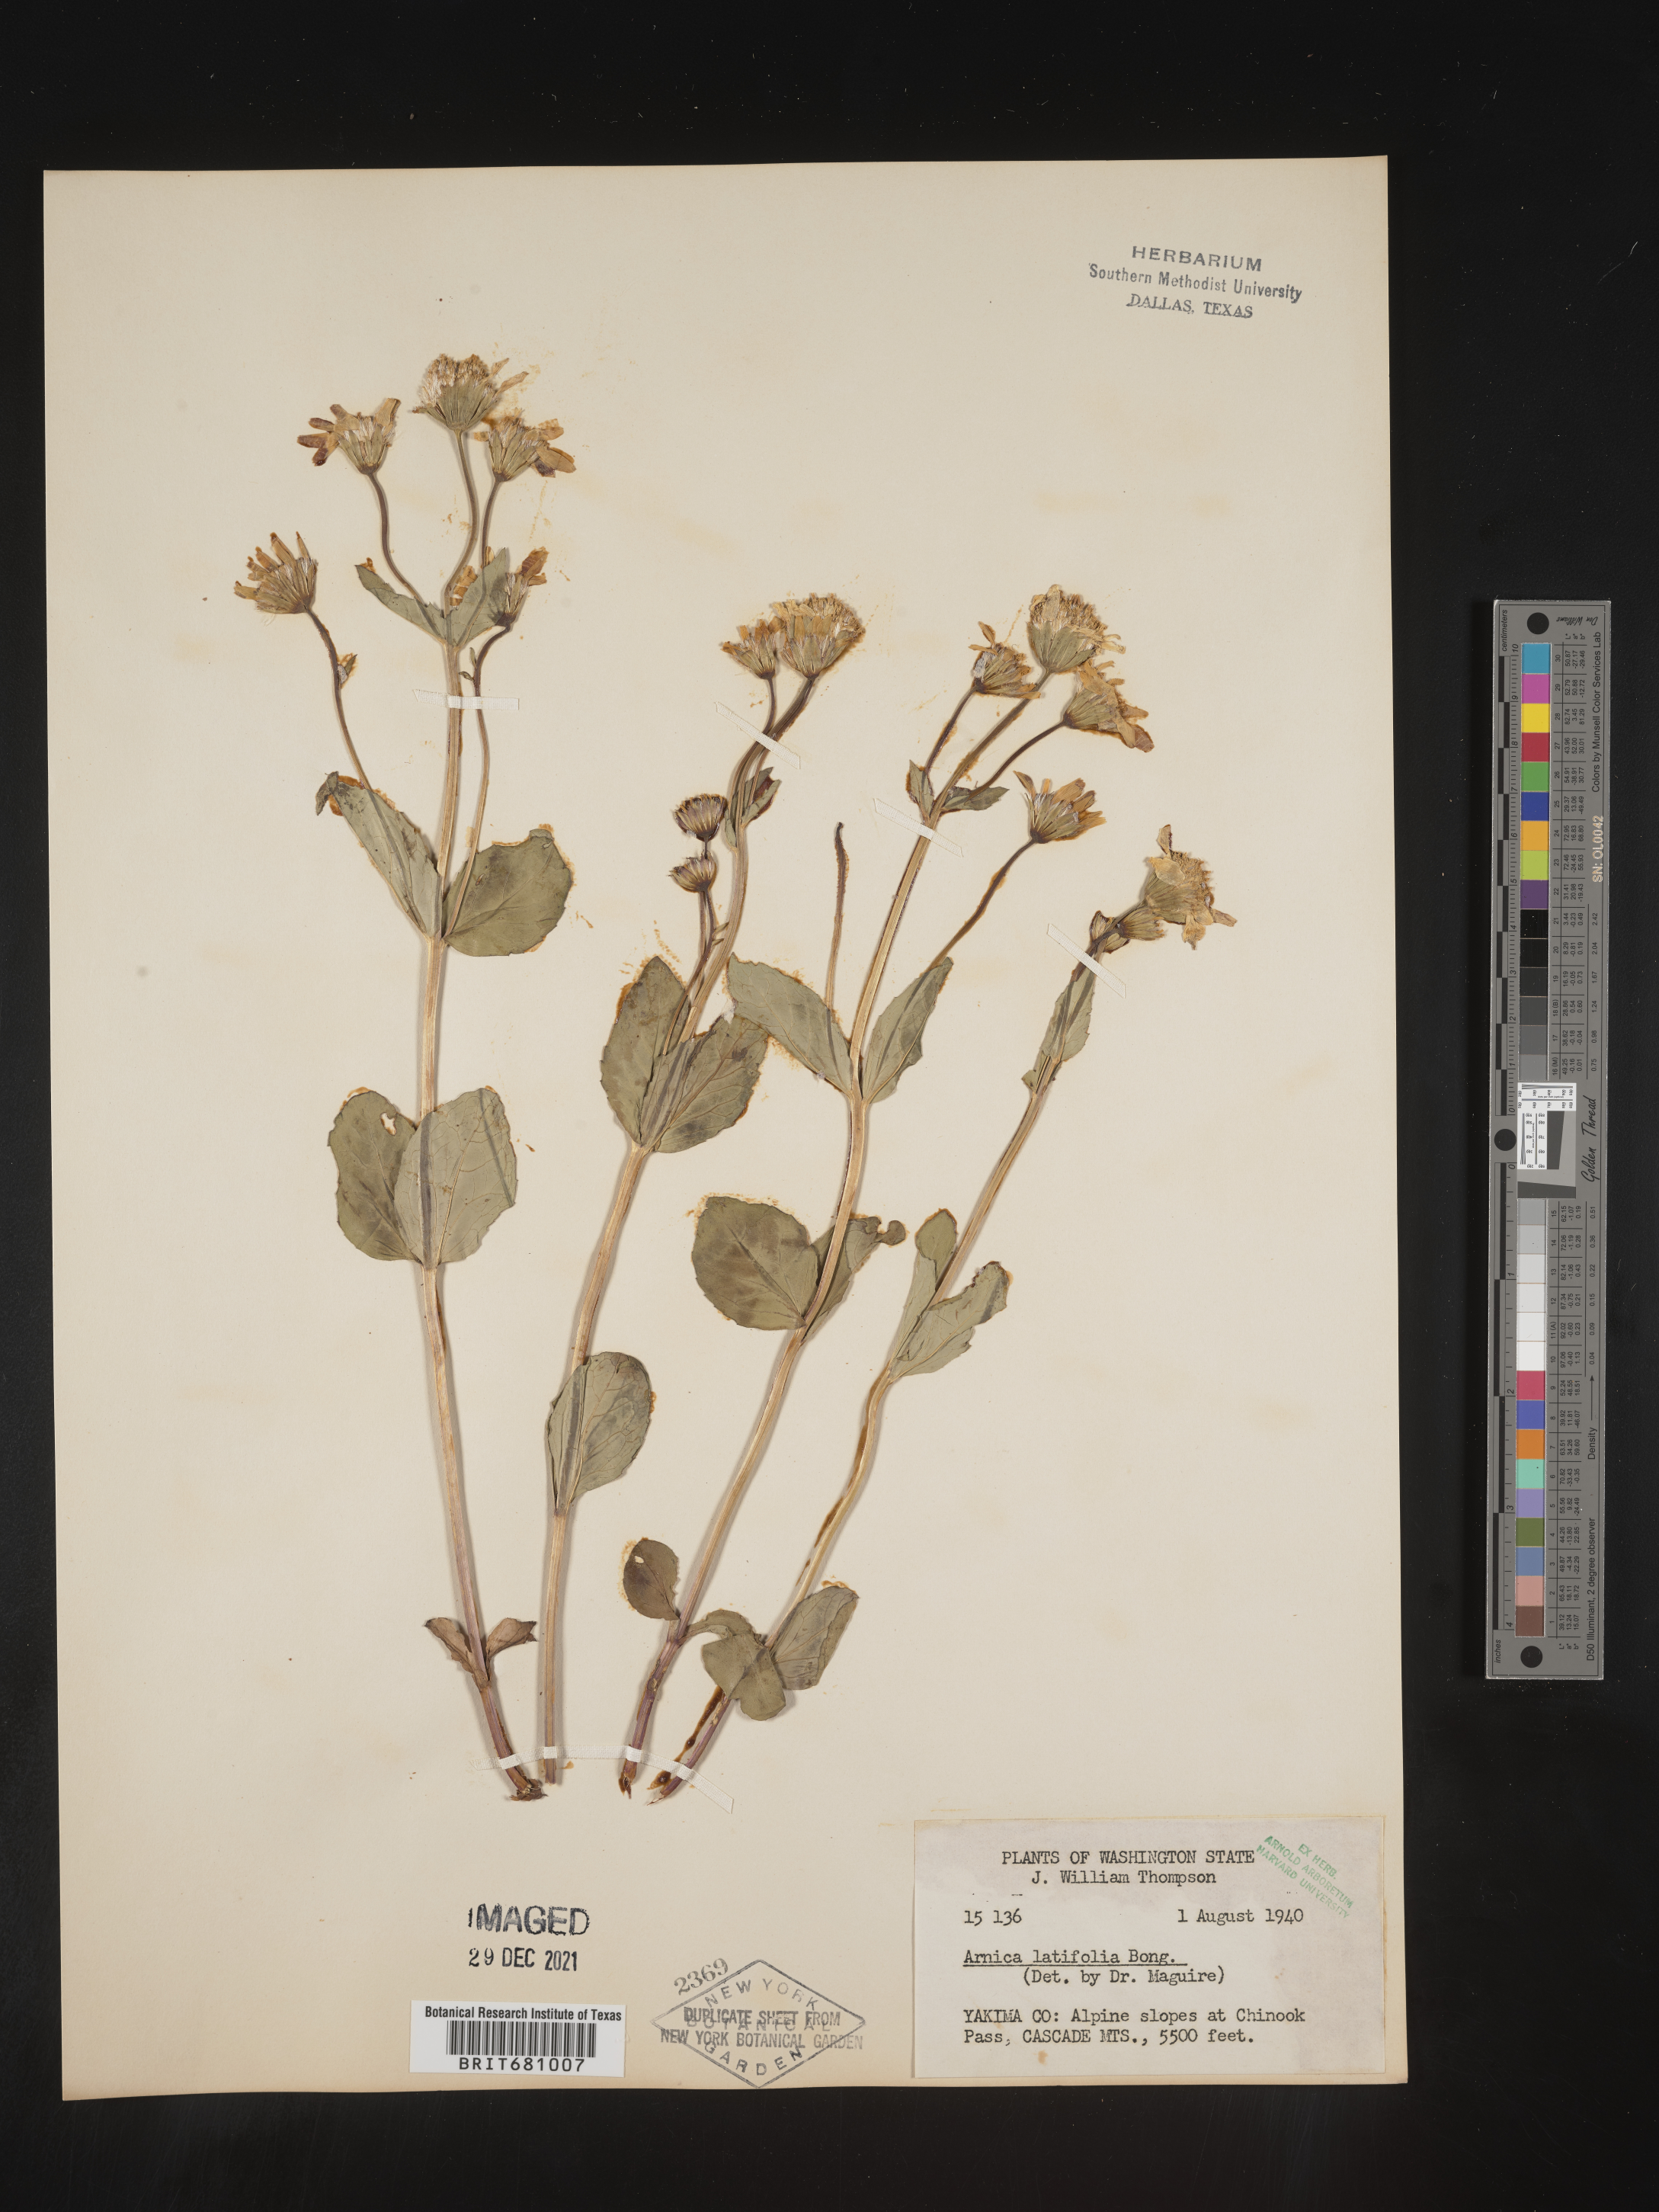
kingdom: Plantae
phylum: Tracheophyta
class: Magnoliopsida
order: Asterales
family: Asteraceae
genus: Arnica
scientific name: Arnica latifolia
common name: Arnica
